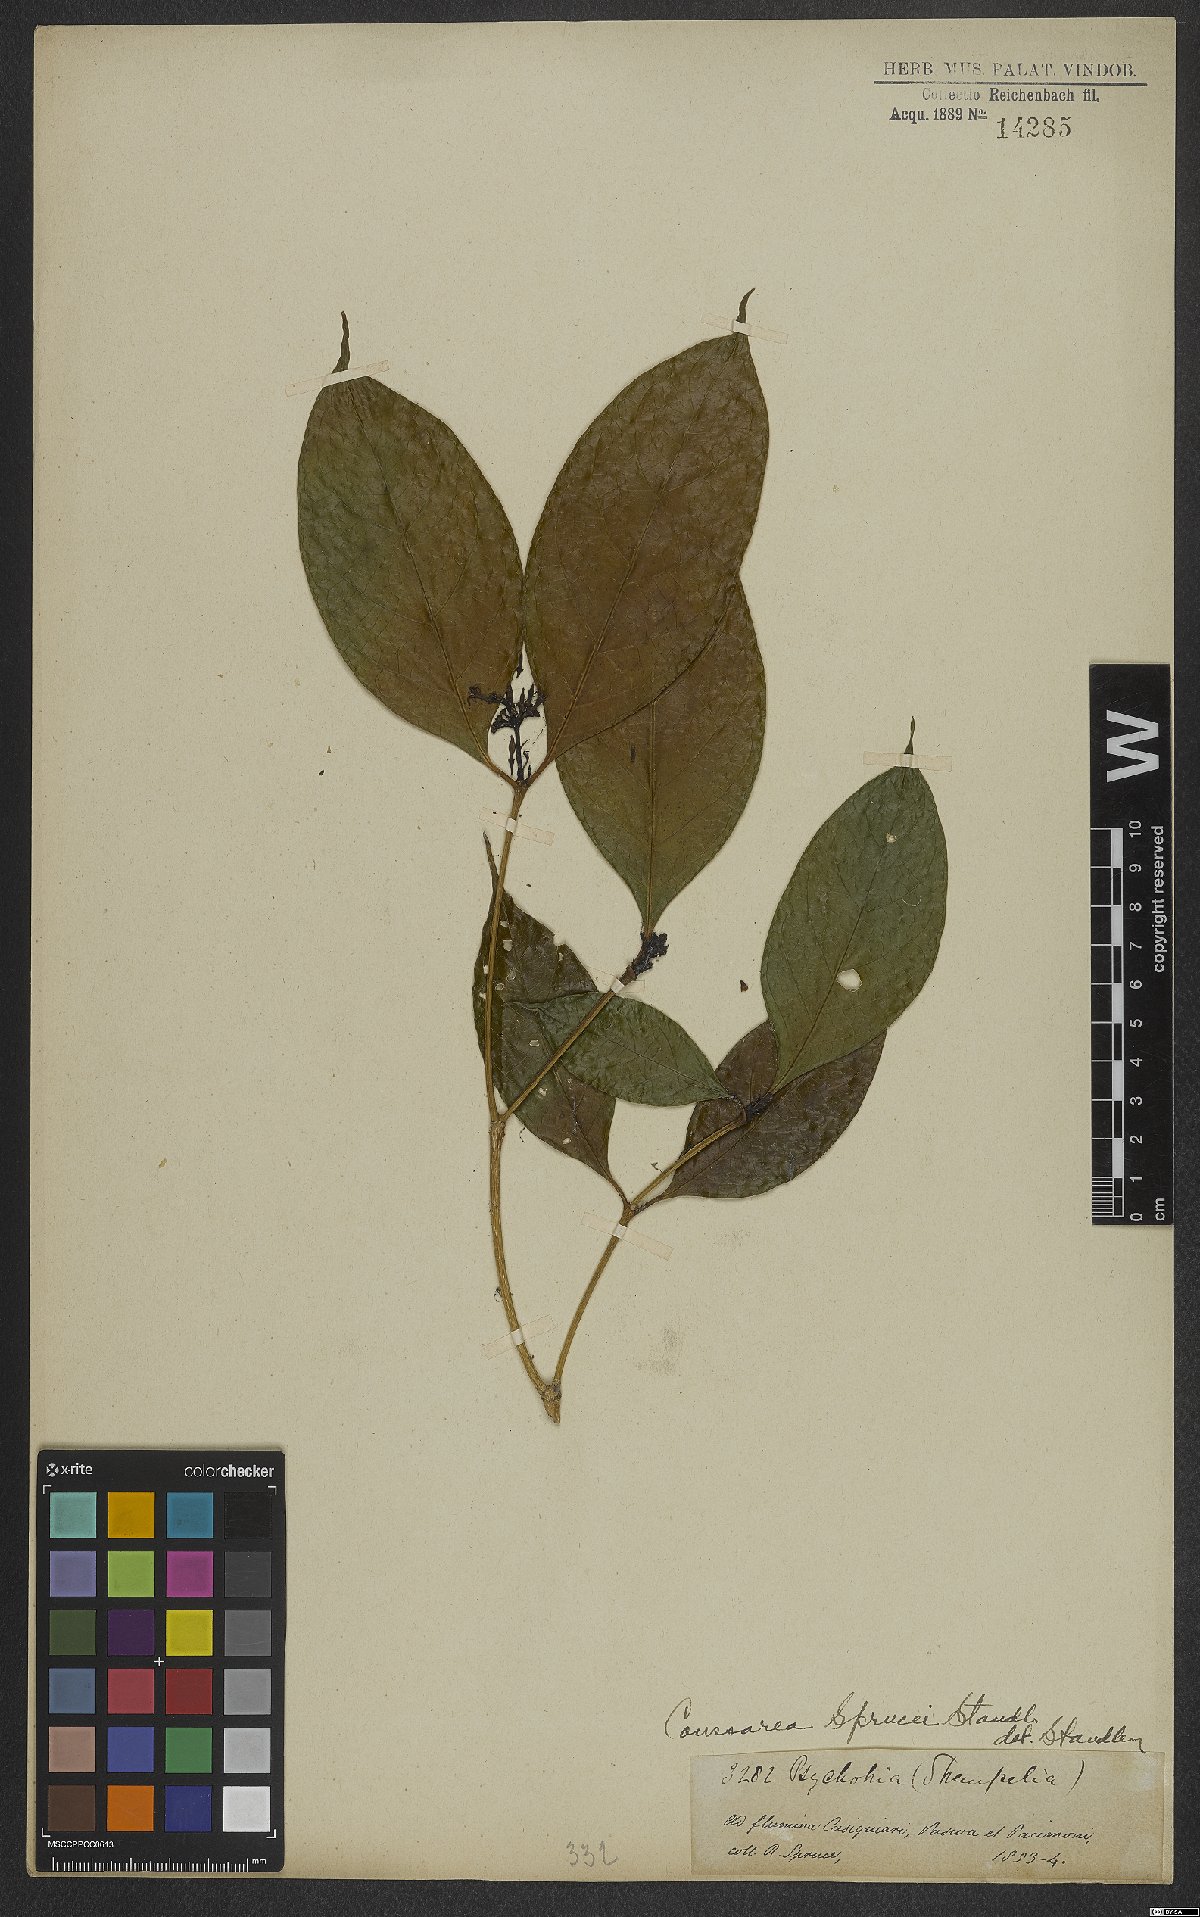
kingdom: Plantae
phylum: Tracheophyta
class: Magnoliopsida
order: Gentianales
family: Rubiaceae
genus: Coussarea
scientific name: Coussarea violacea
